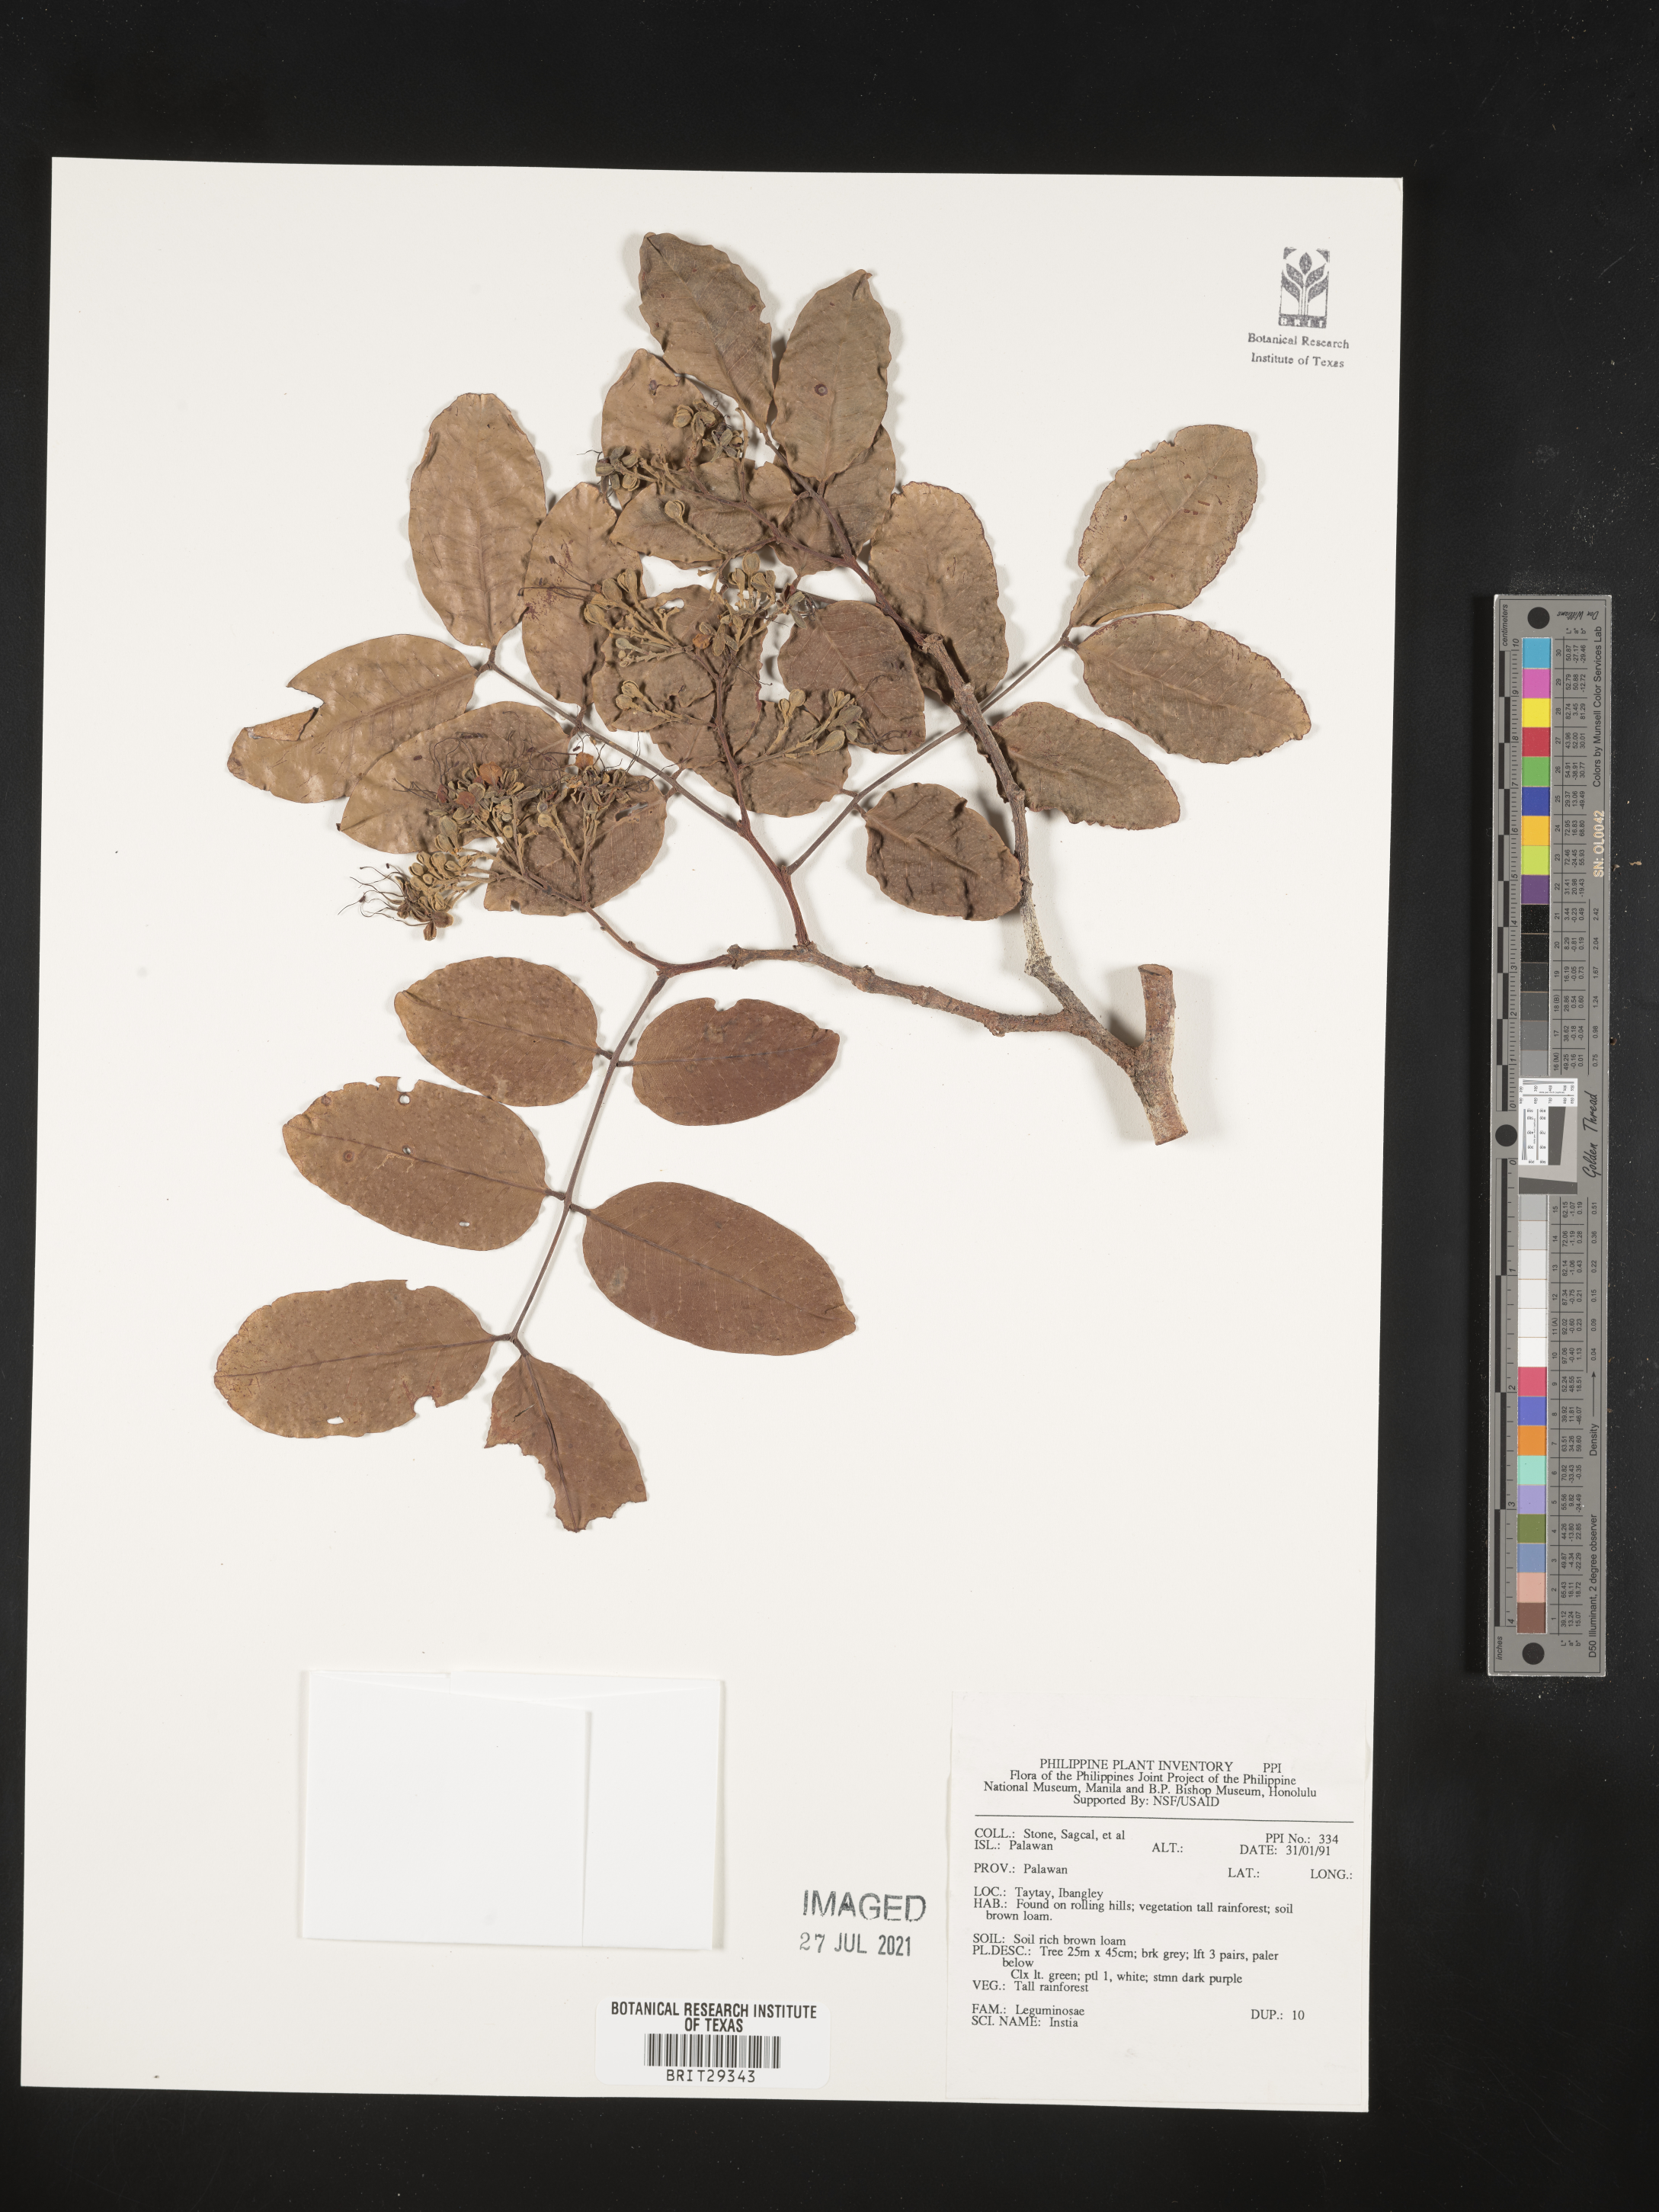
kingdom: Plantae
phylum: Tracheophyta
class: Magnoliopsida
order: Fabales
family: Fabaceae
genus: Intsia
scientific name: Intsia
